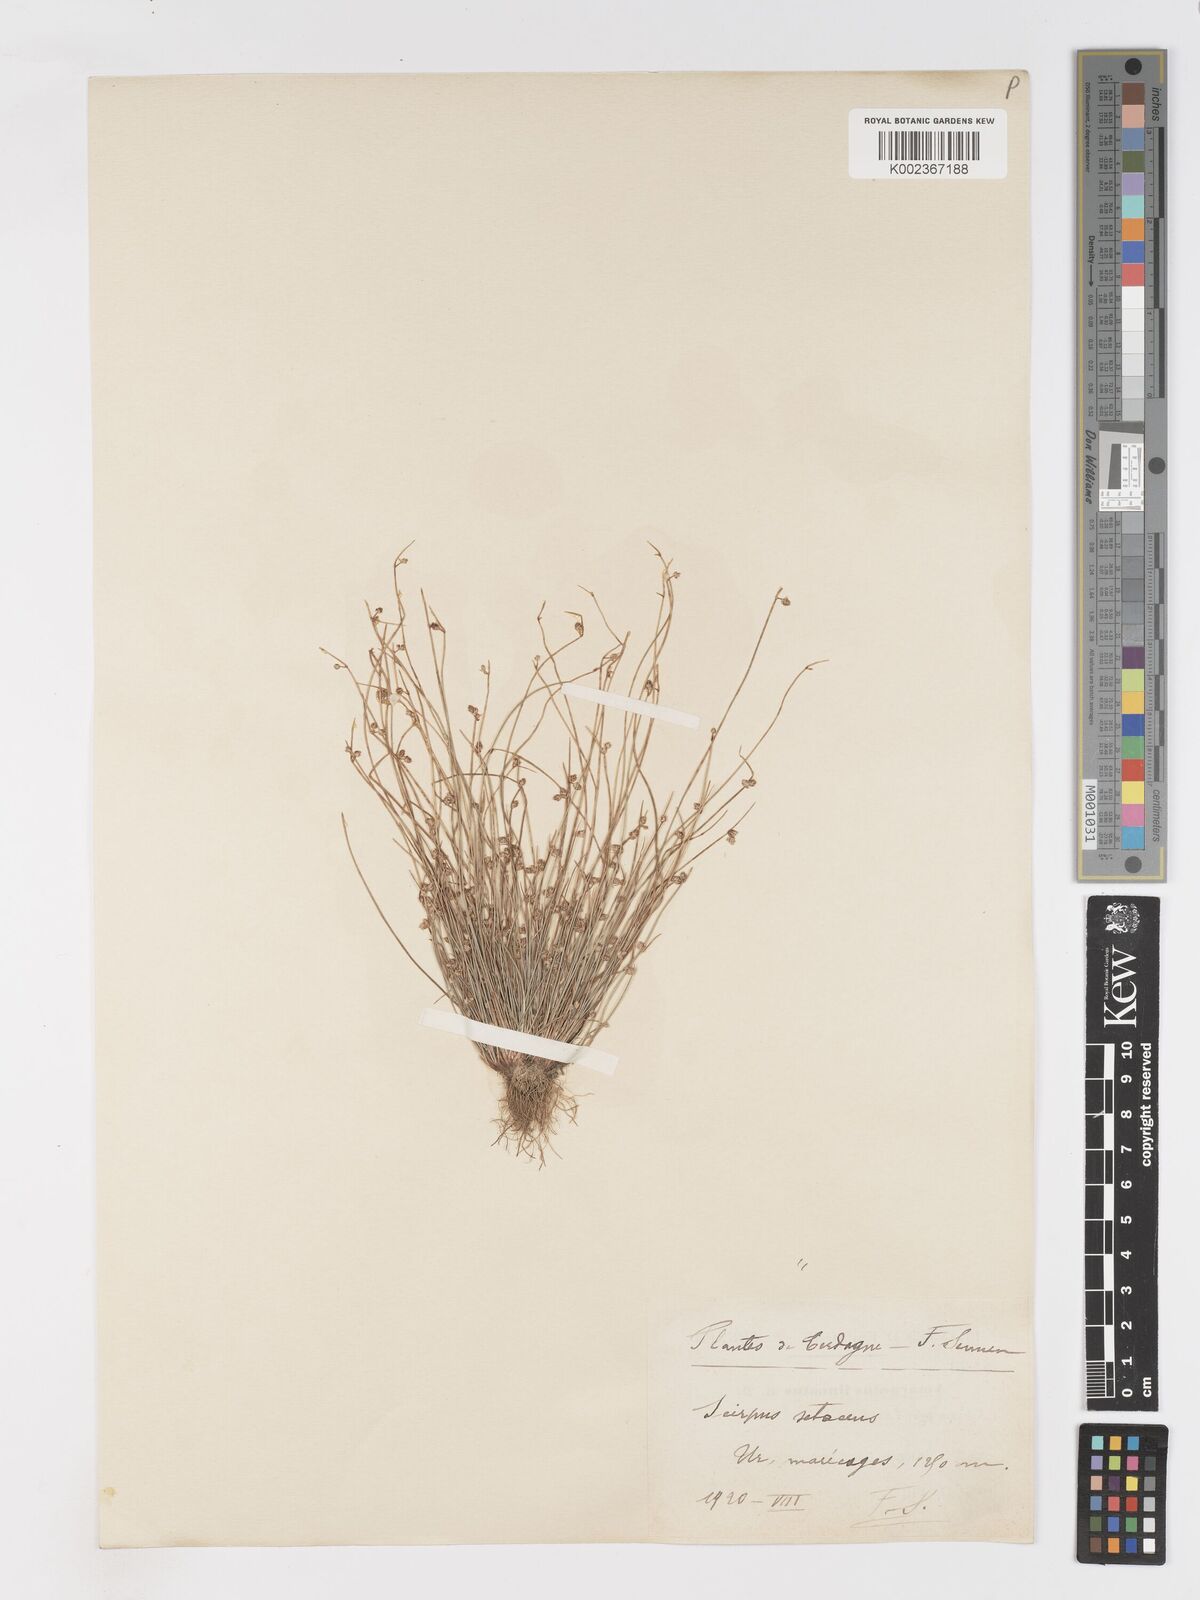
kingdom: Plantae
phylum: Tracheophyta
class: Liliopsida
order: Poales
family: Cyperaceae
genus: Isolepis
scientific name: Isolepis setacea
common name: Bristle club-rush
